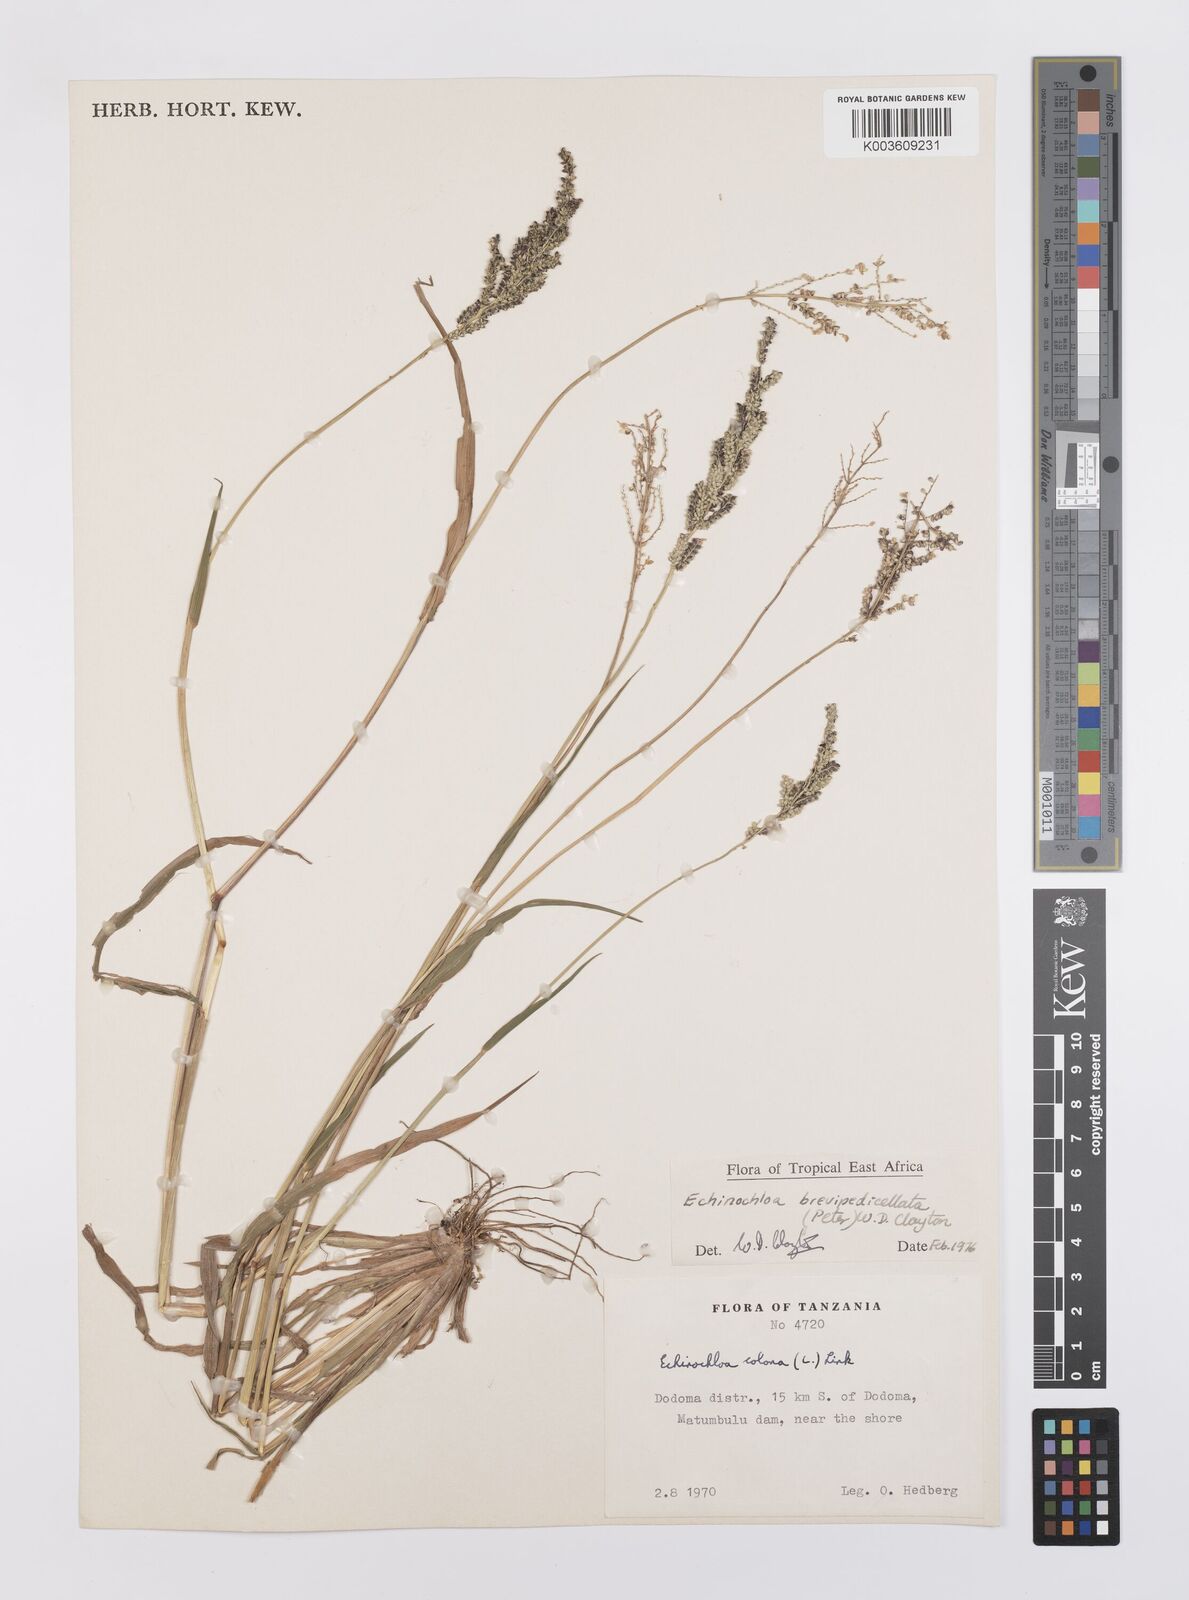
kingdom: Plantae
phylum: Tracheophyta
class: Liliopsida
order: Poales
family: Poaceae
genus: Echinochloa
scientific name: Echinochloa brevipedicellata
